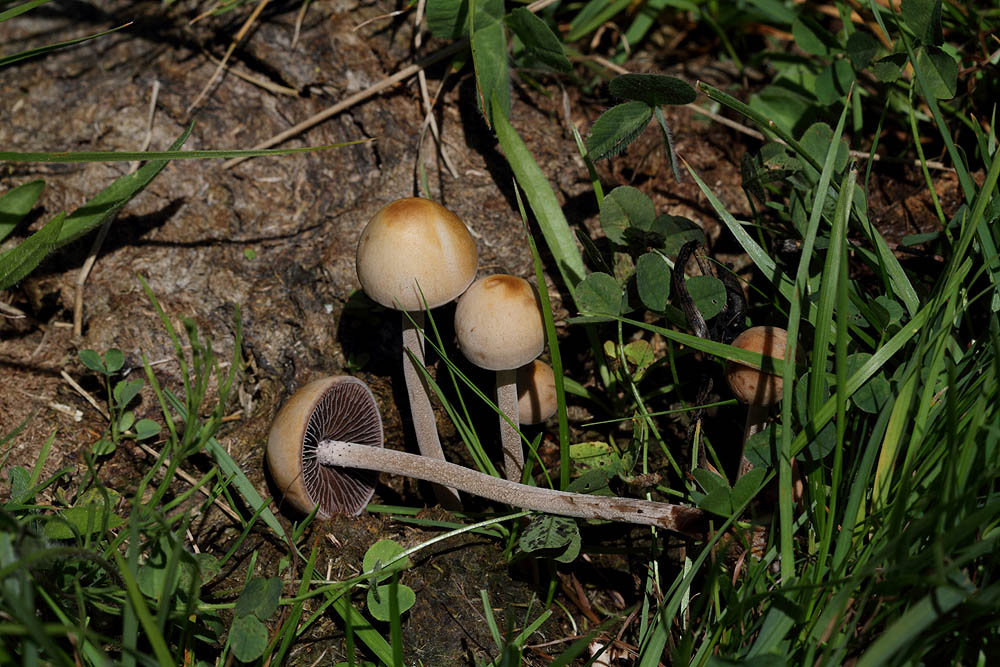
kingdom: Fungi
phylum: Basidiomycota
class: Agaricomycetes
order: Agaricales
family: Bolbitiaceae
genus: Panaeolus
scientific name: Panaeolus subfirmus
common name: fælled-glanshat
